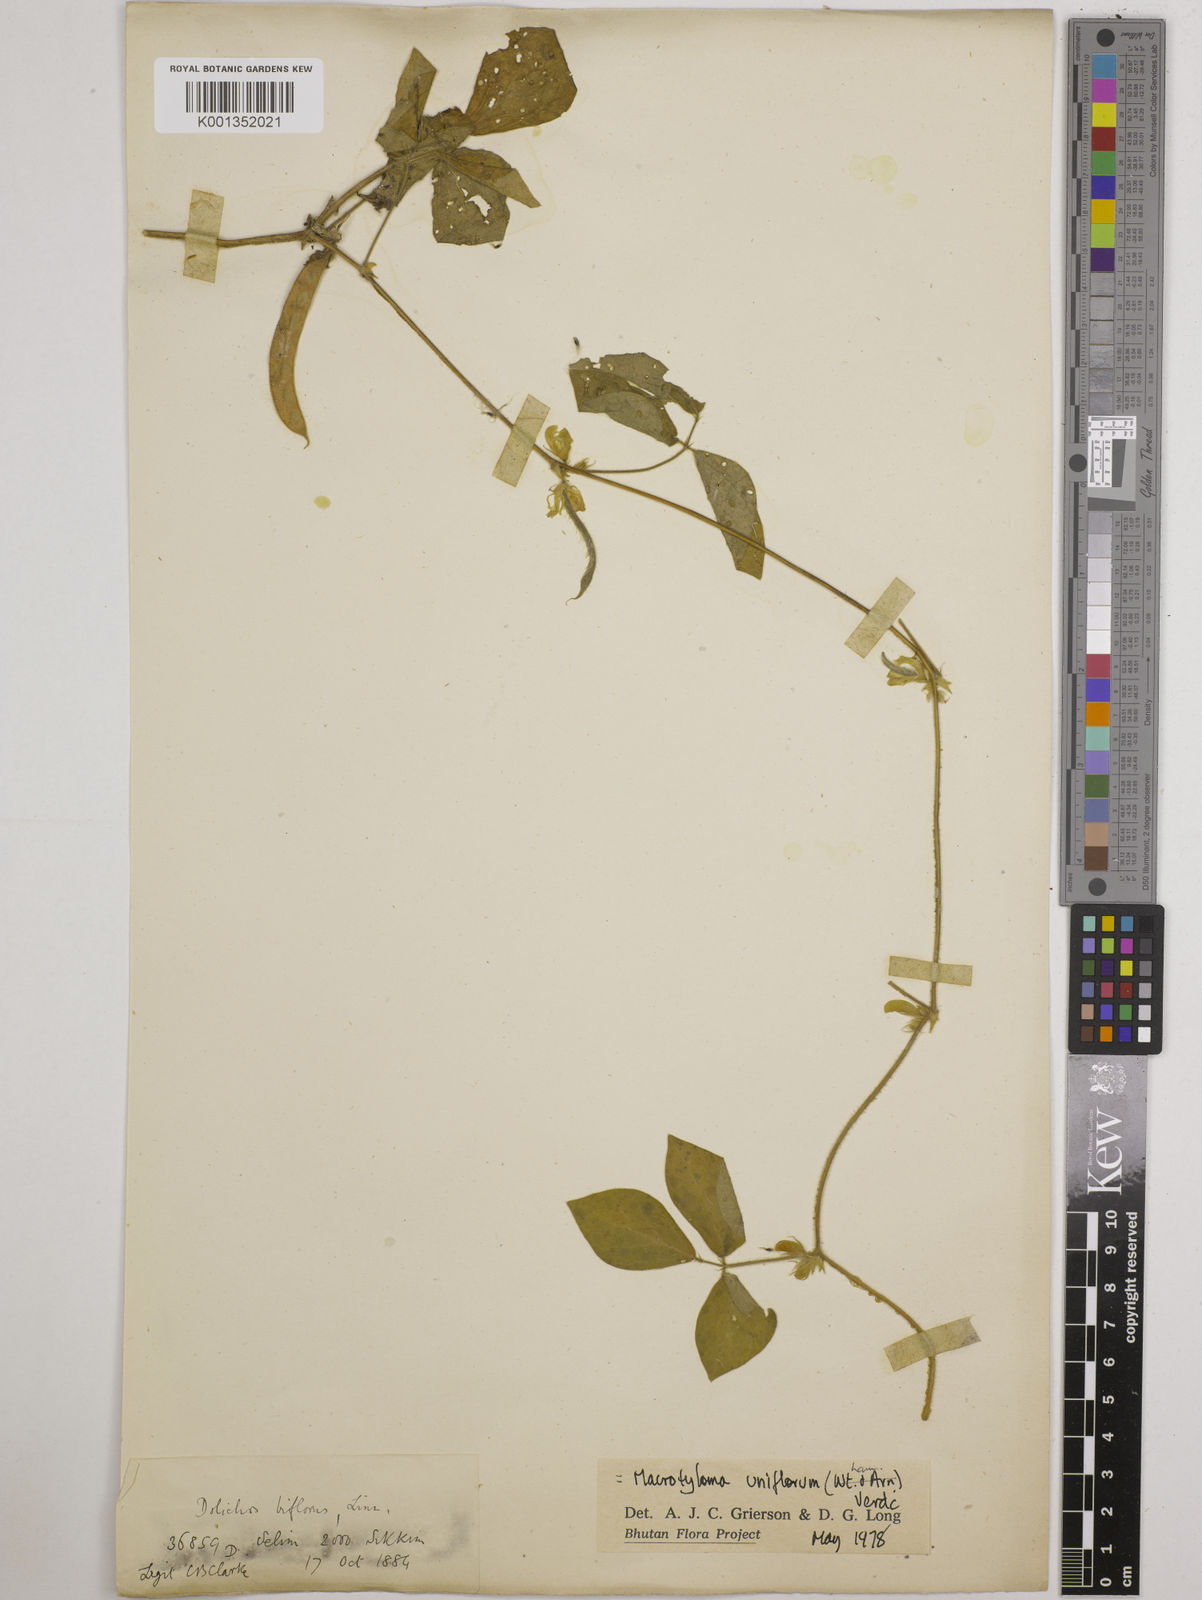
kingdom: Plantae
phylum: Tracheophyta
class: Magnoliopsida
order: Fabales
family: Fabaceae
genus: Macrotyloma
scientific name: Macrotyloma uniflorum
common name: Horse gram
